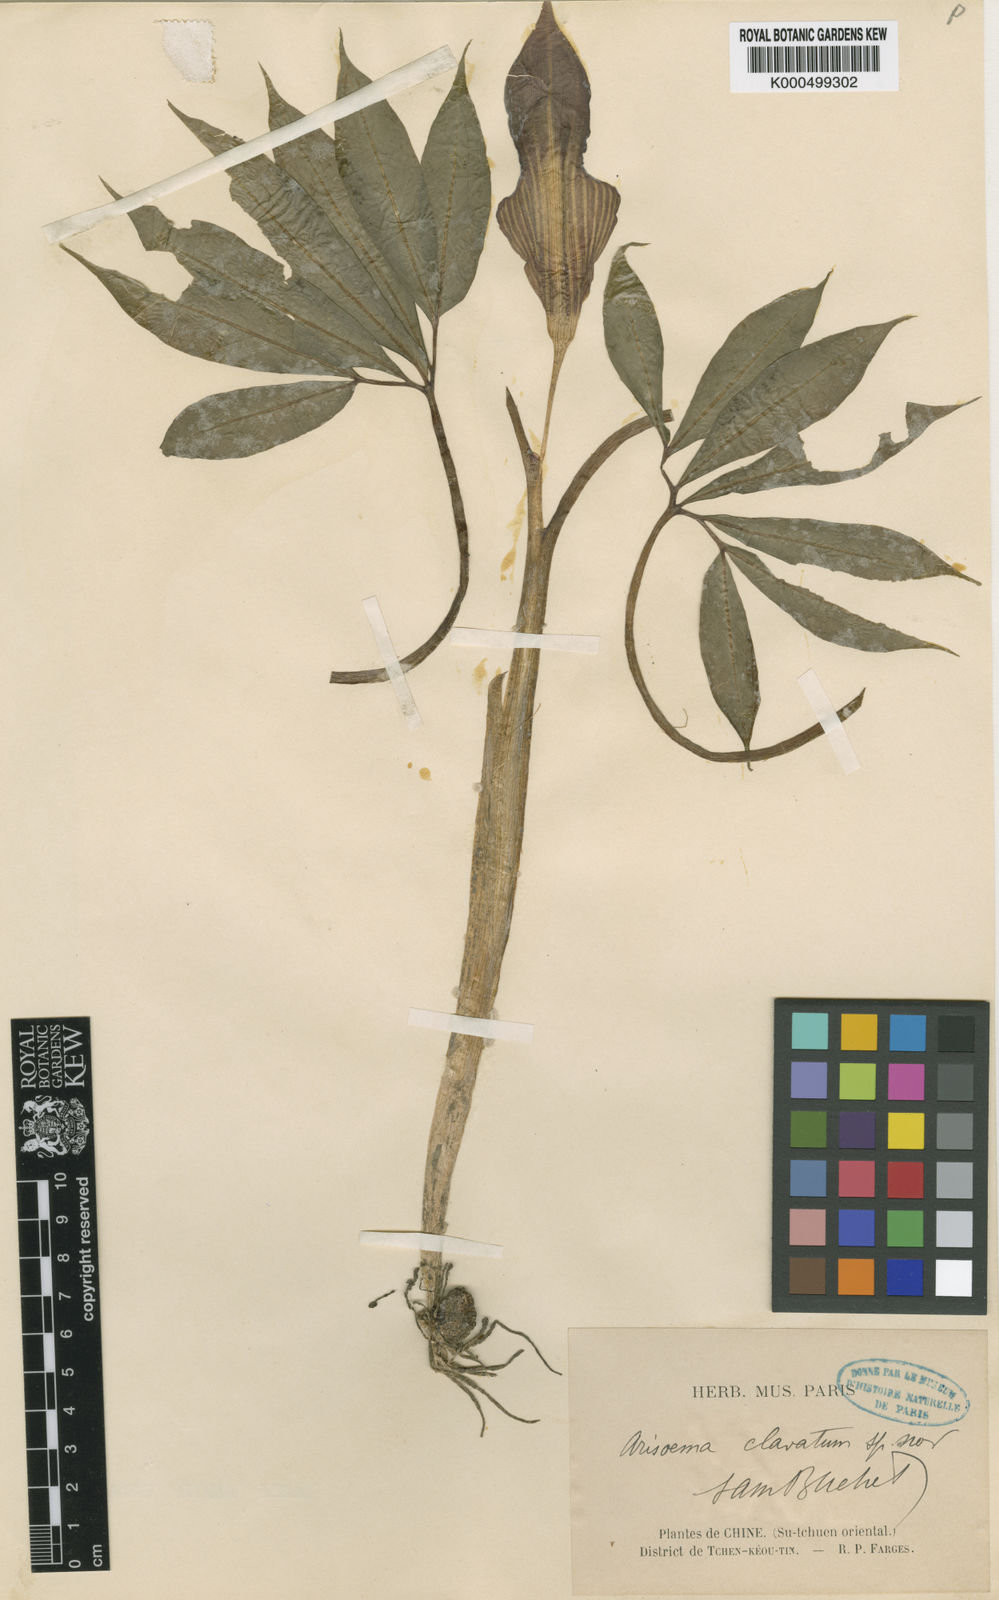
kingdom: Plantae
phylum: Tracheophyta
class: Liliopsida
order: Alismatales
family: Araceae
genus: Arisaema
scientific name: Arisaema clavatum
